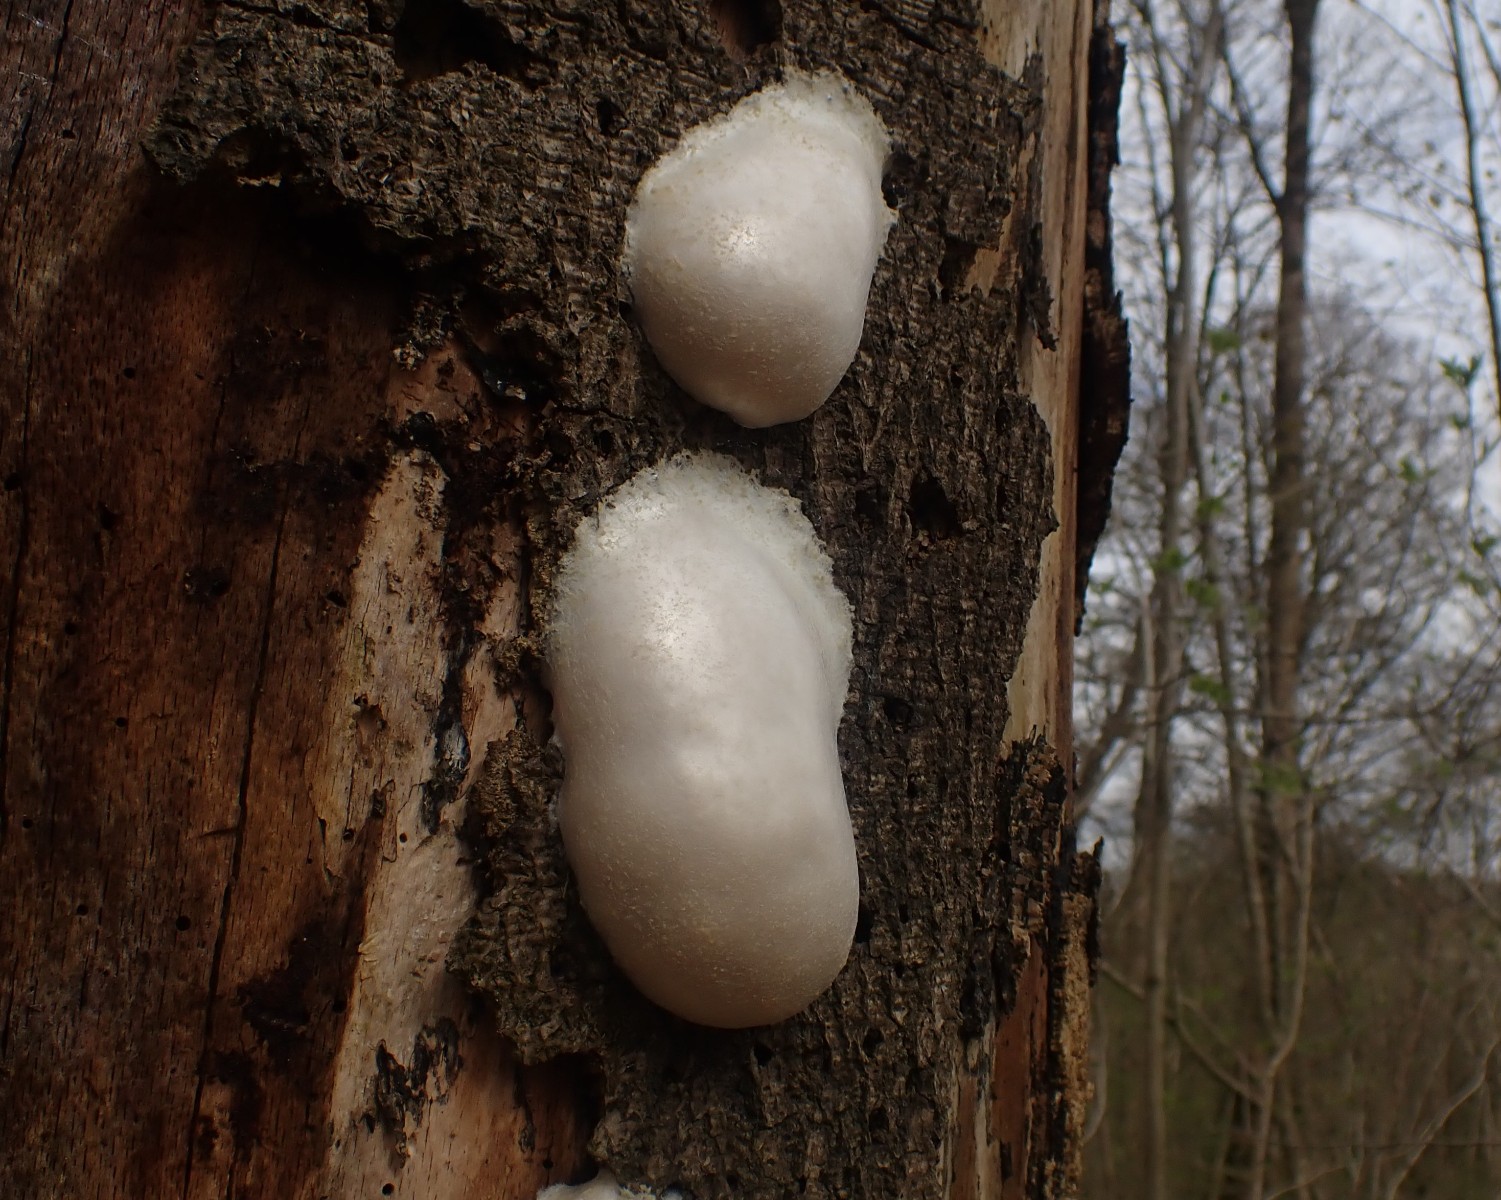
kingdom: Protozoa
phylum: Mycetozoa
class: Myxomycetes
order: Cribrariales
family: Tubiferaceae
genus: Reticularia
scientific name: Reticularia lycoperdon
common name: skinnende støvpude
